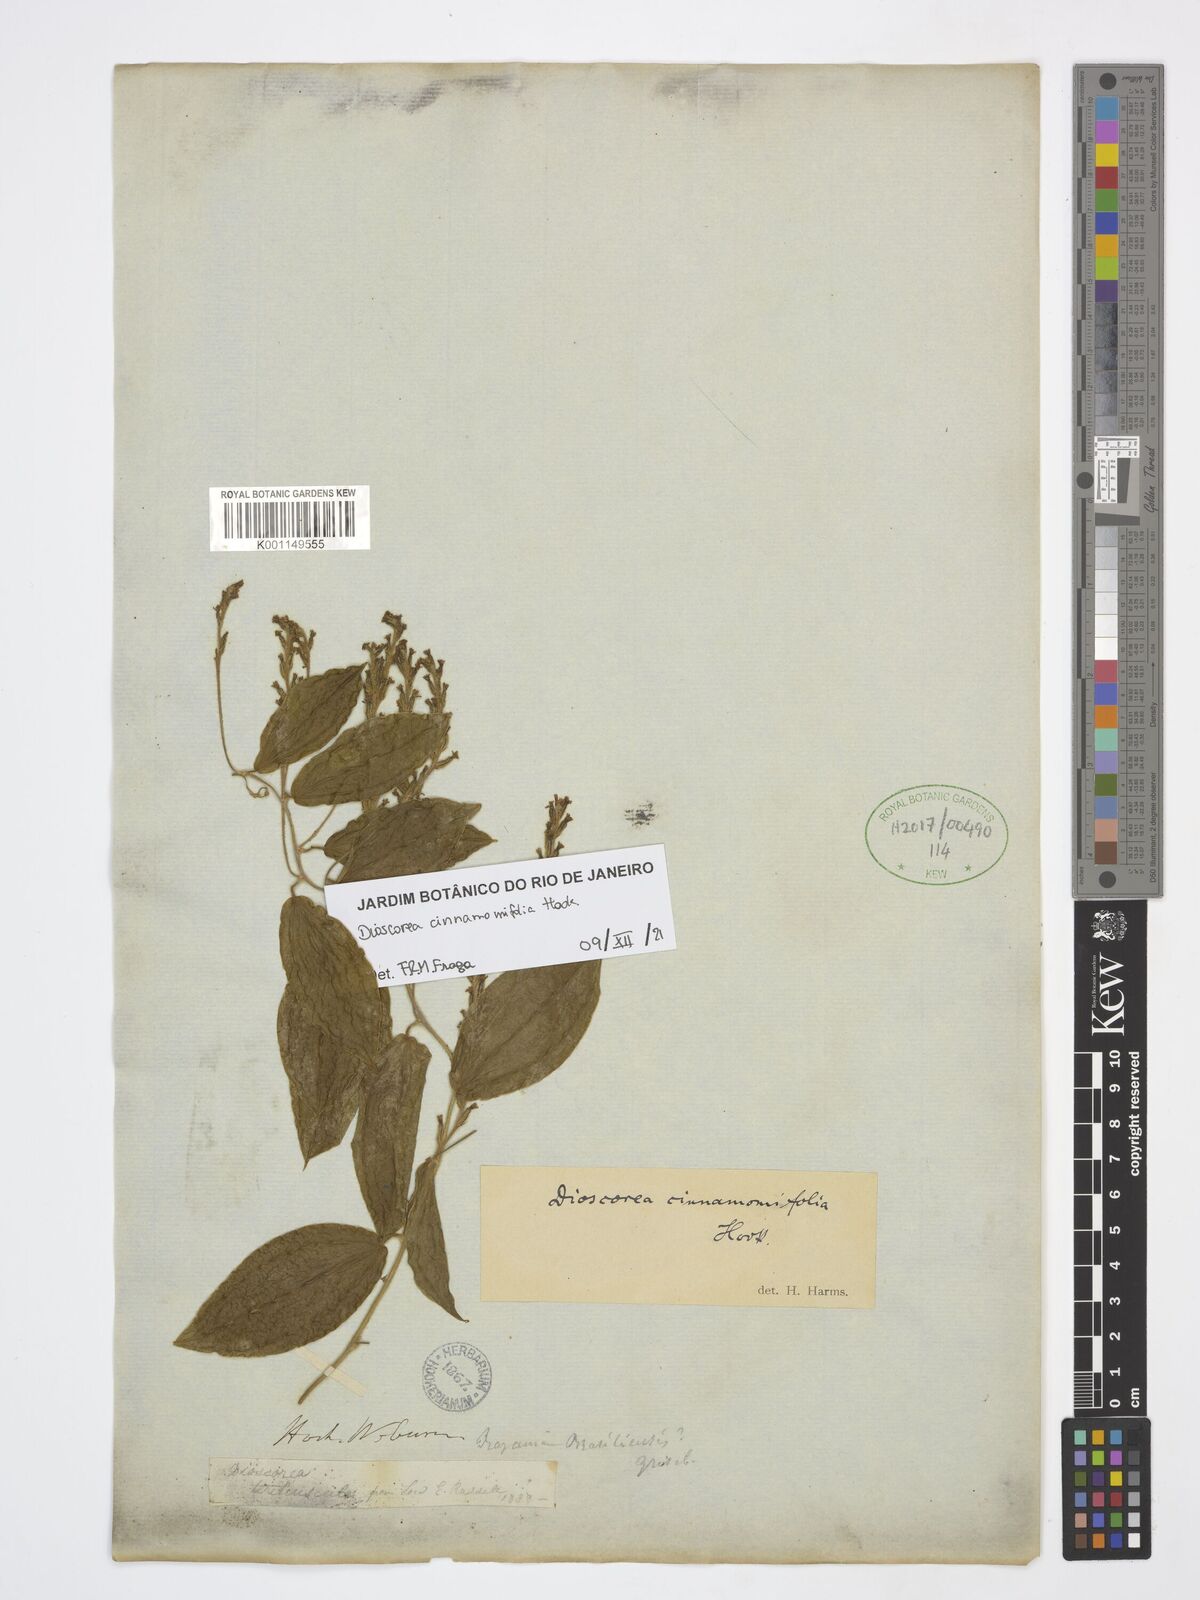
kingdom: Plantae
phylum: Tracheophyta
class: Liliopsida
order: Dioscoreales
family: Dioscoreaceae
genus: Dioscorea
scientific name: Dioscorea cinnamomifolia
